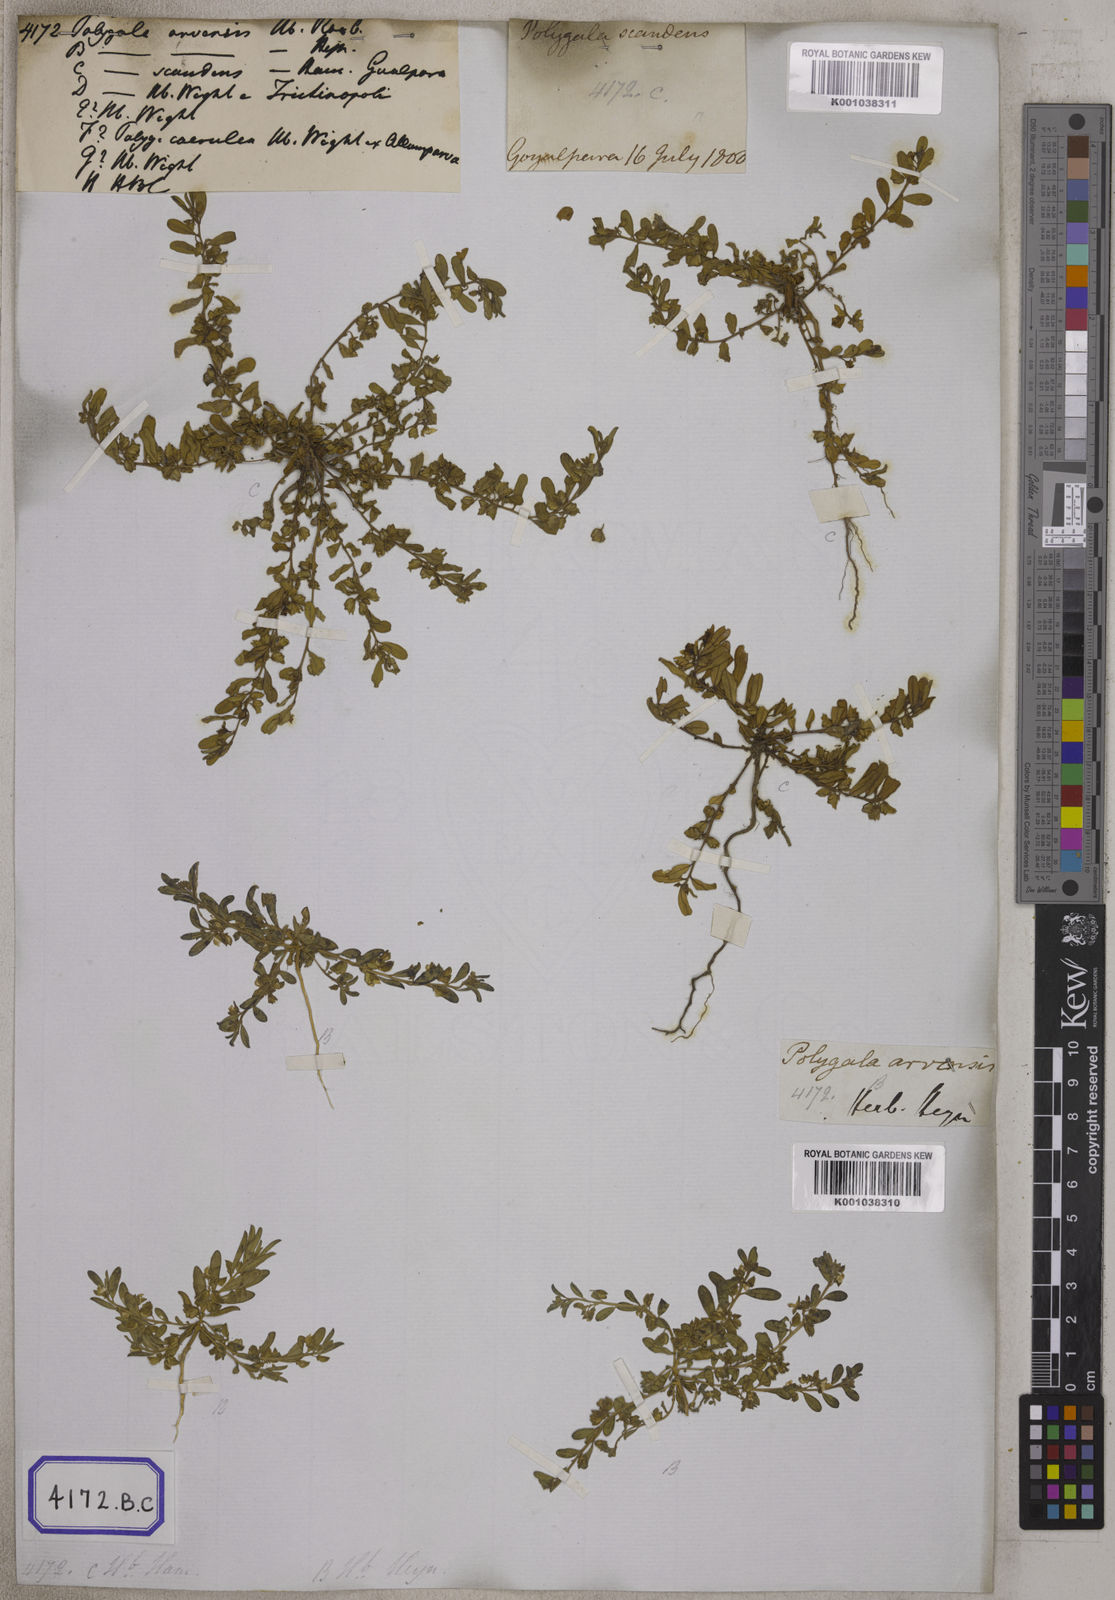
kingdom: Plantae
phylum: Tracheophyta
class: Magnoliopsida
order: Fabales
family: Polygalaceae
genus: Polygala
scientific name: Polygala
